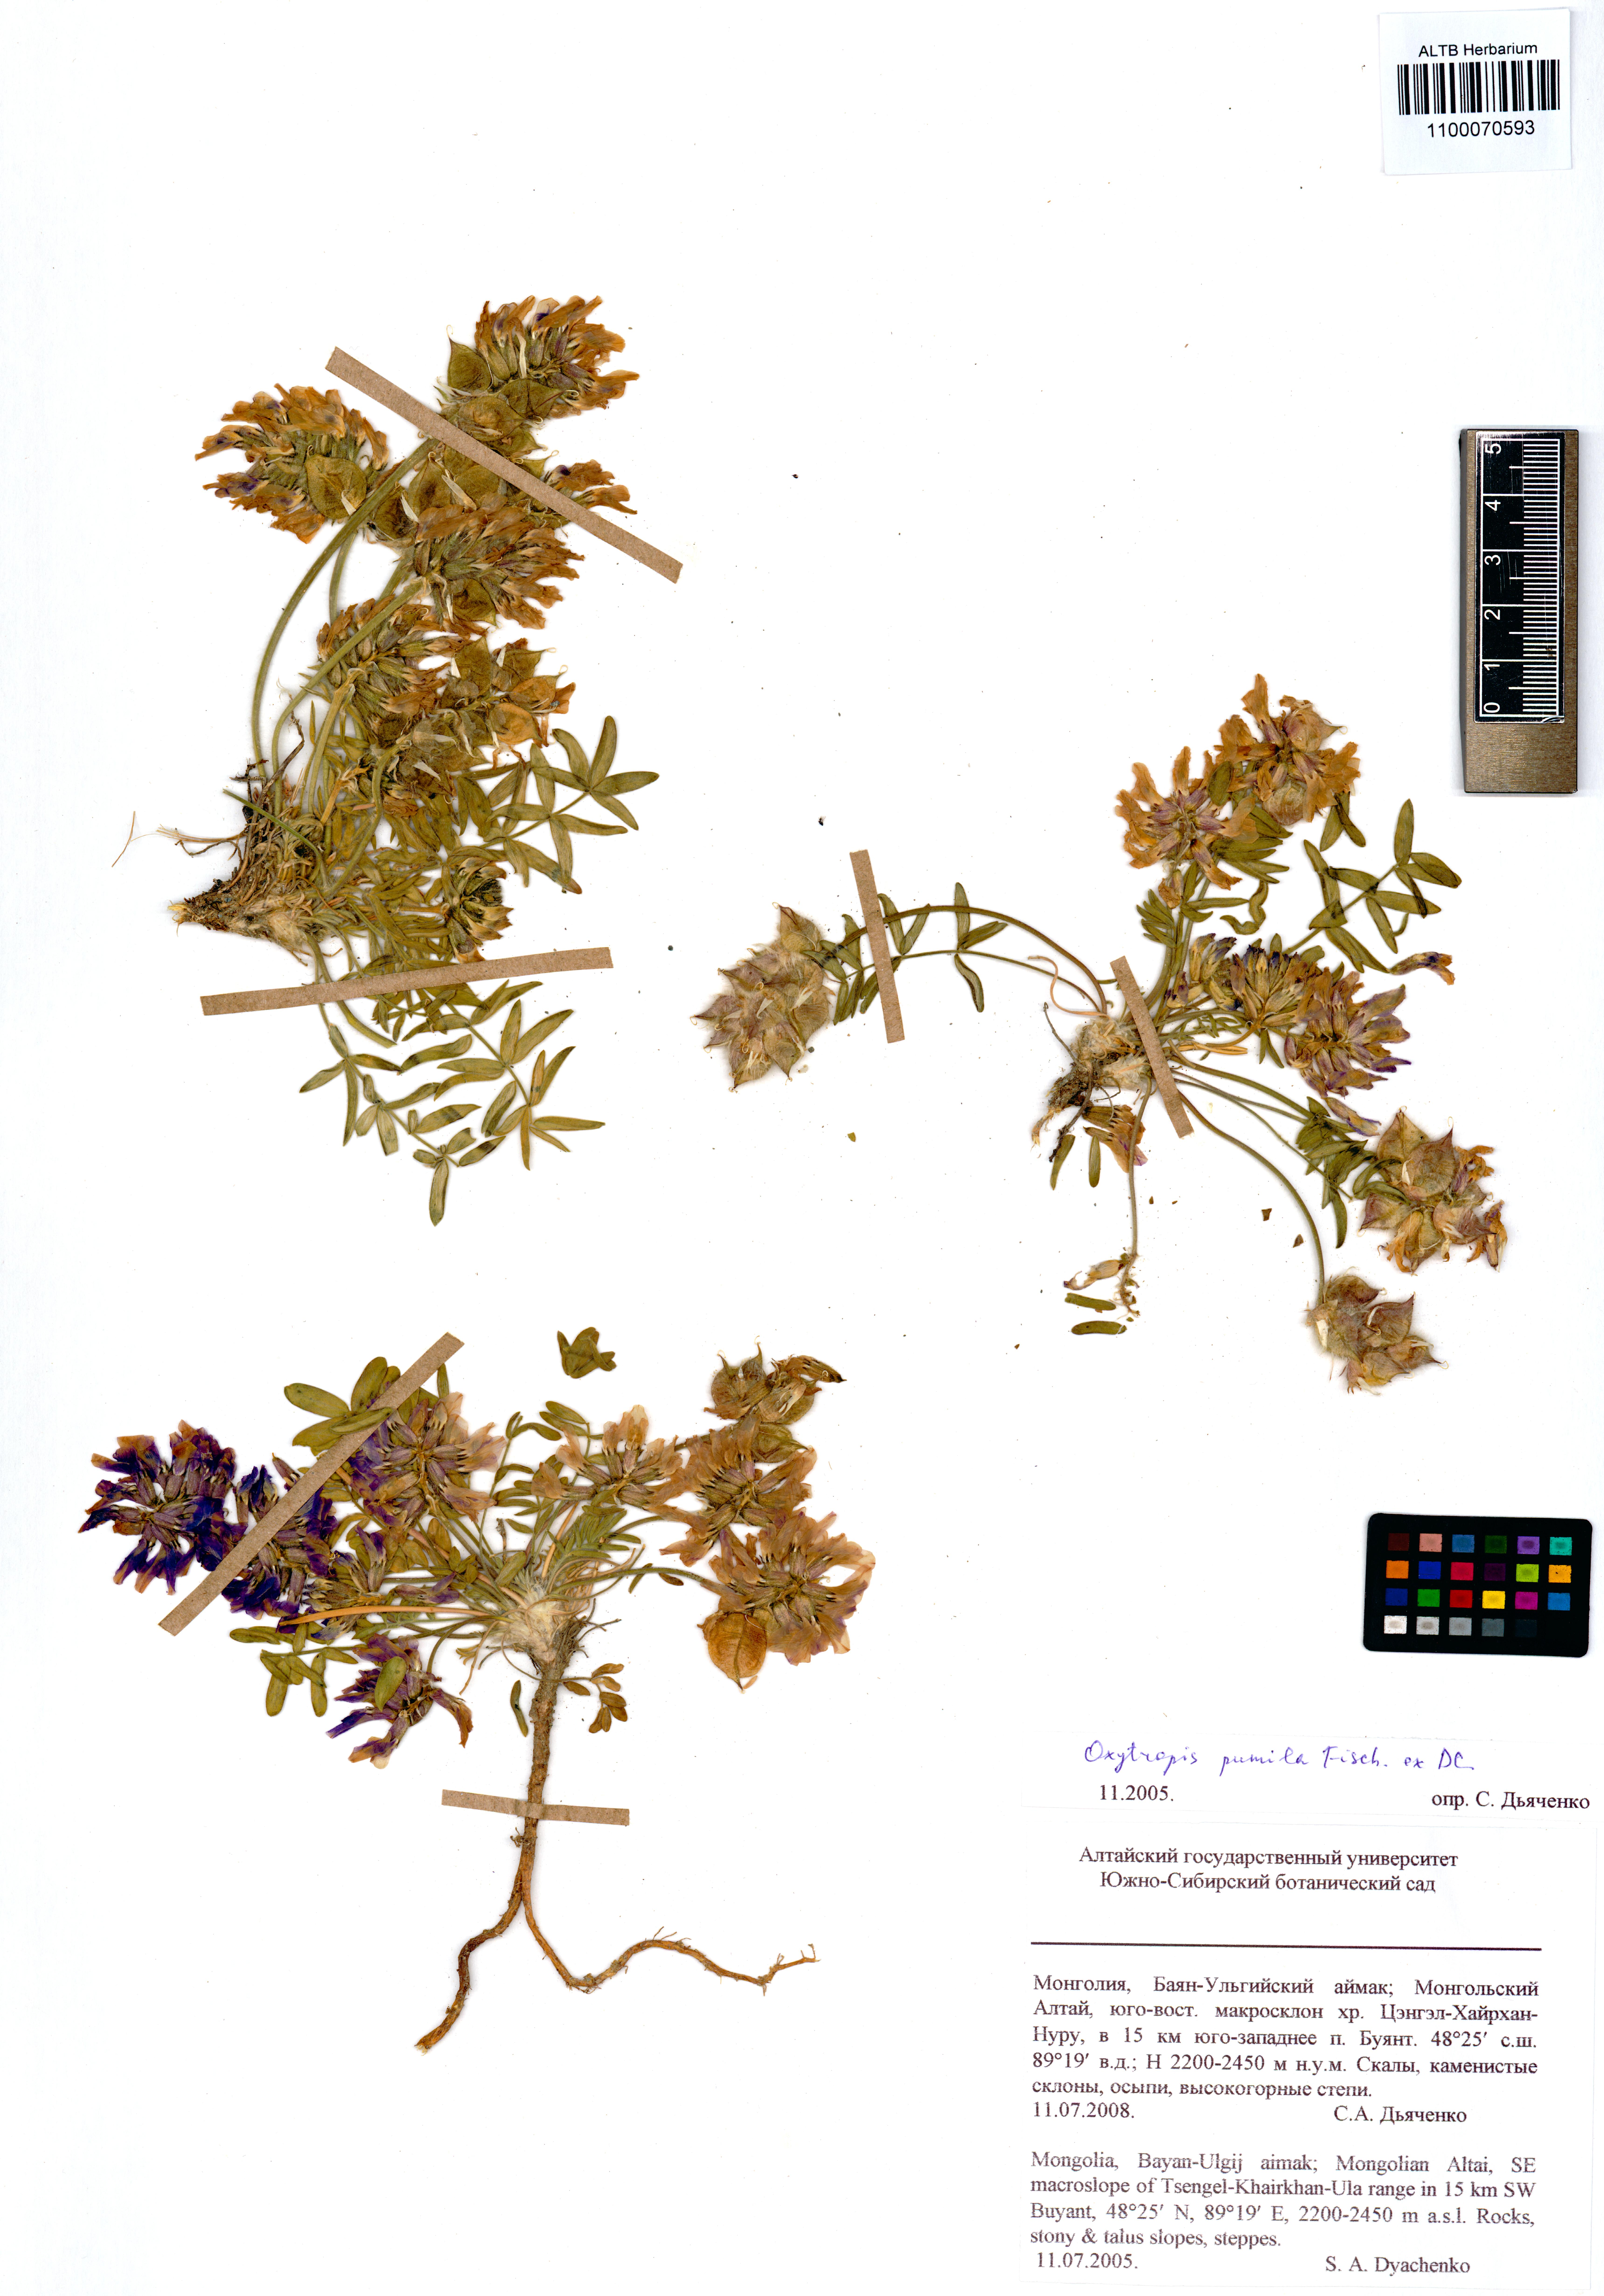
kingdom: Plantae
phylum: Tracheophyta
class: Magnoliopsida
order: Fabales
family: Fabaceae
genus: Oxytropis
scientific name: Oxytropis pumila
